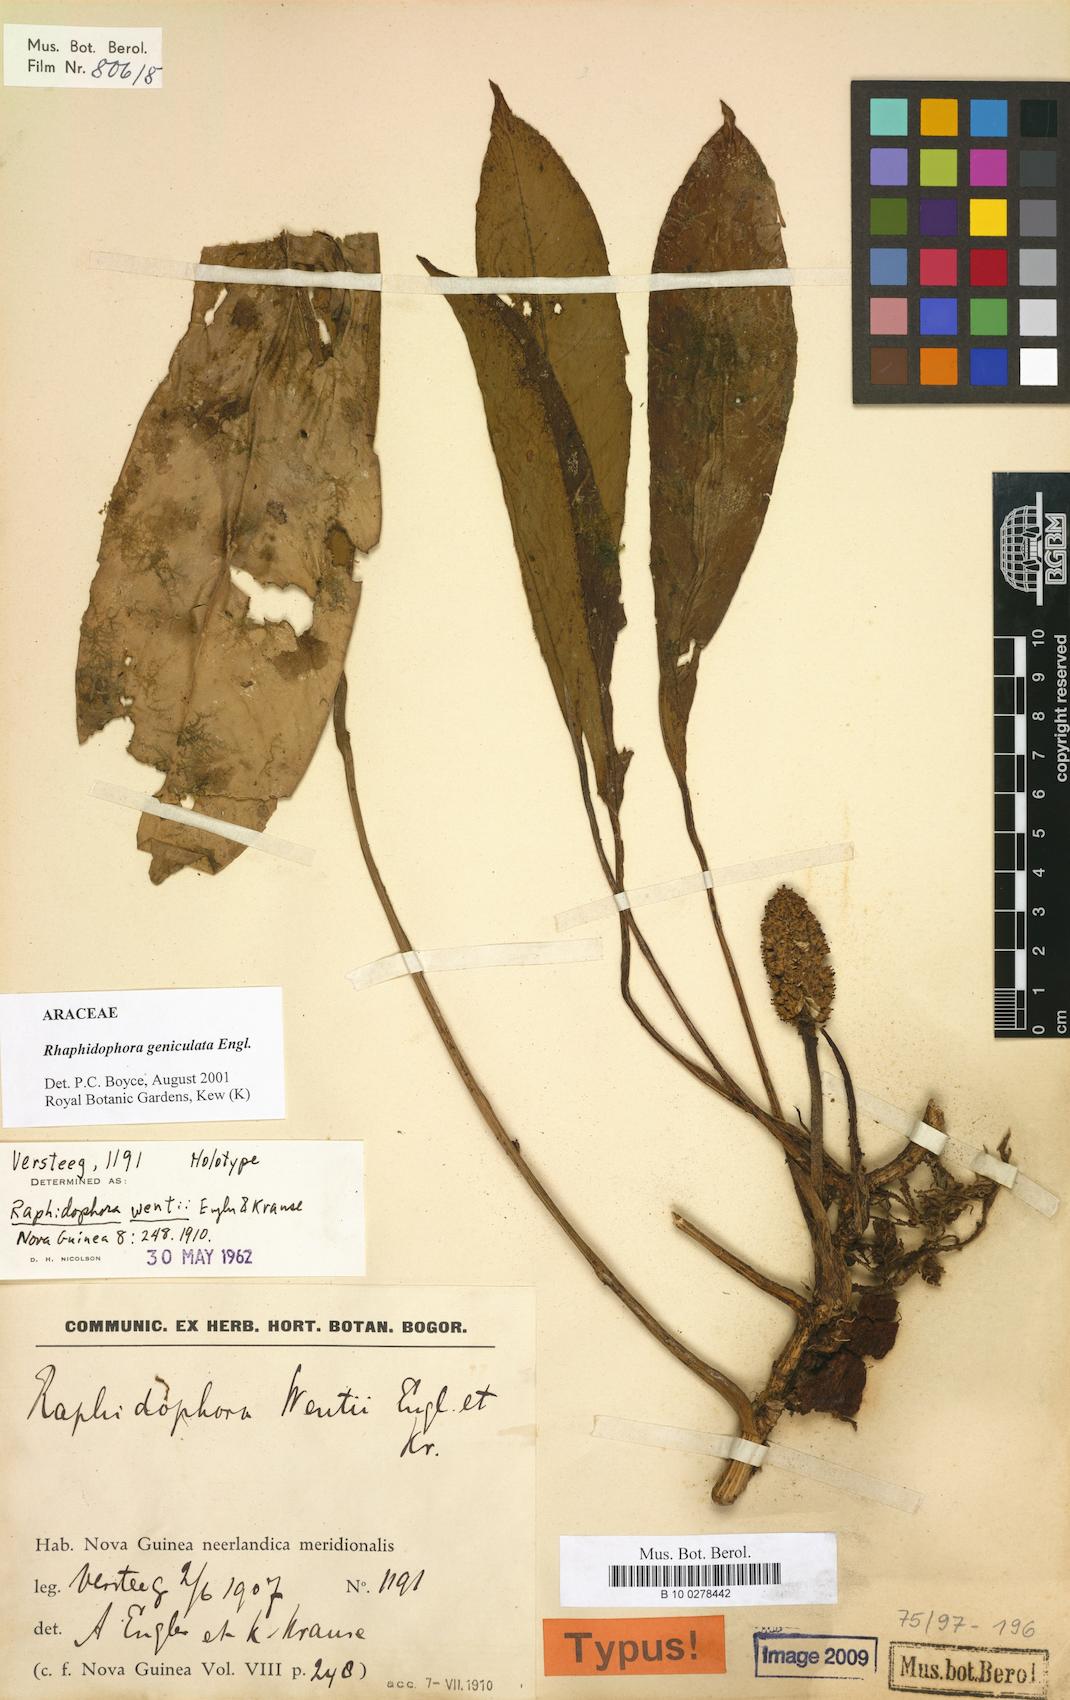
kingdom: Plantae
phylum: Tracheophyta
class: Liliopsida
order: Alismatales
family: Araceae
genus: Rhaphidophora
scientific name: Rhaphidophora geniculata
